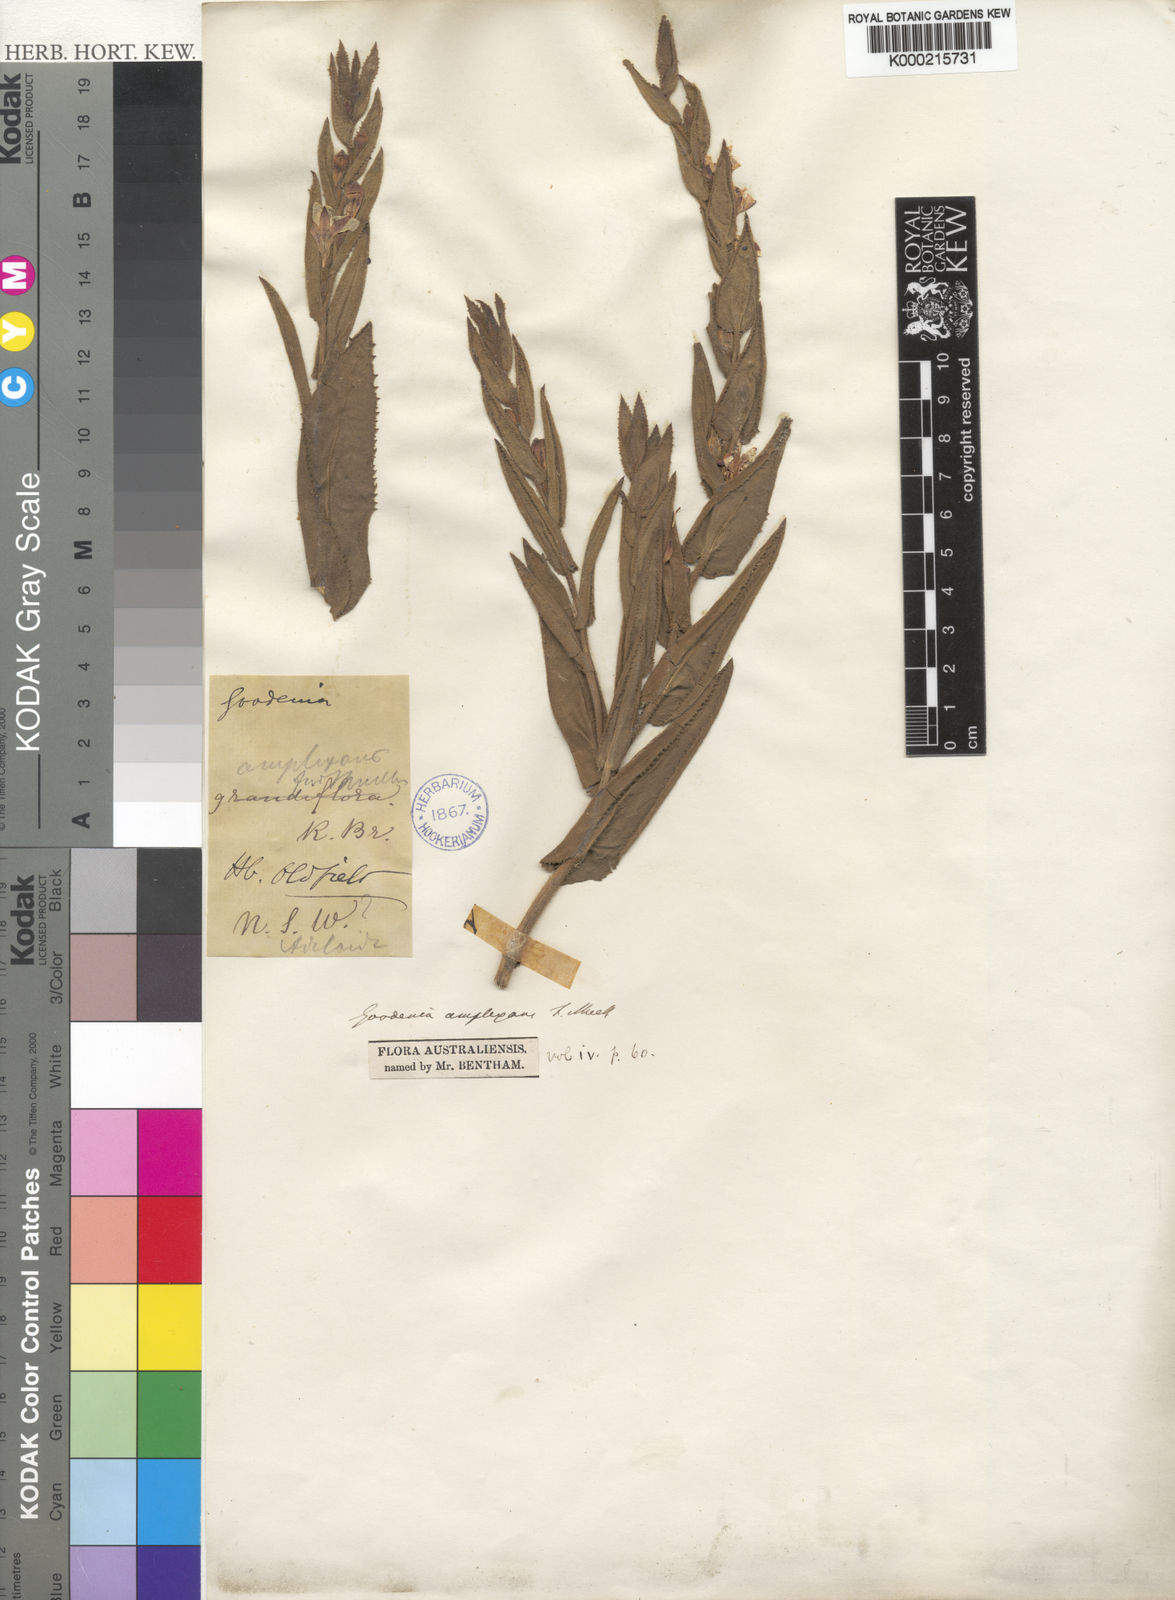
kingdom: Plantae
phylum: Tracheophyta
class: Magnoliopsida
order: Asterales
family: Goodeniaceae
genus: Goodenia
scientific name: Goodenia amplexans
